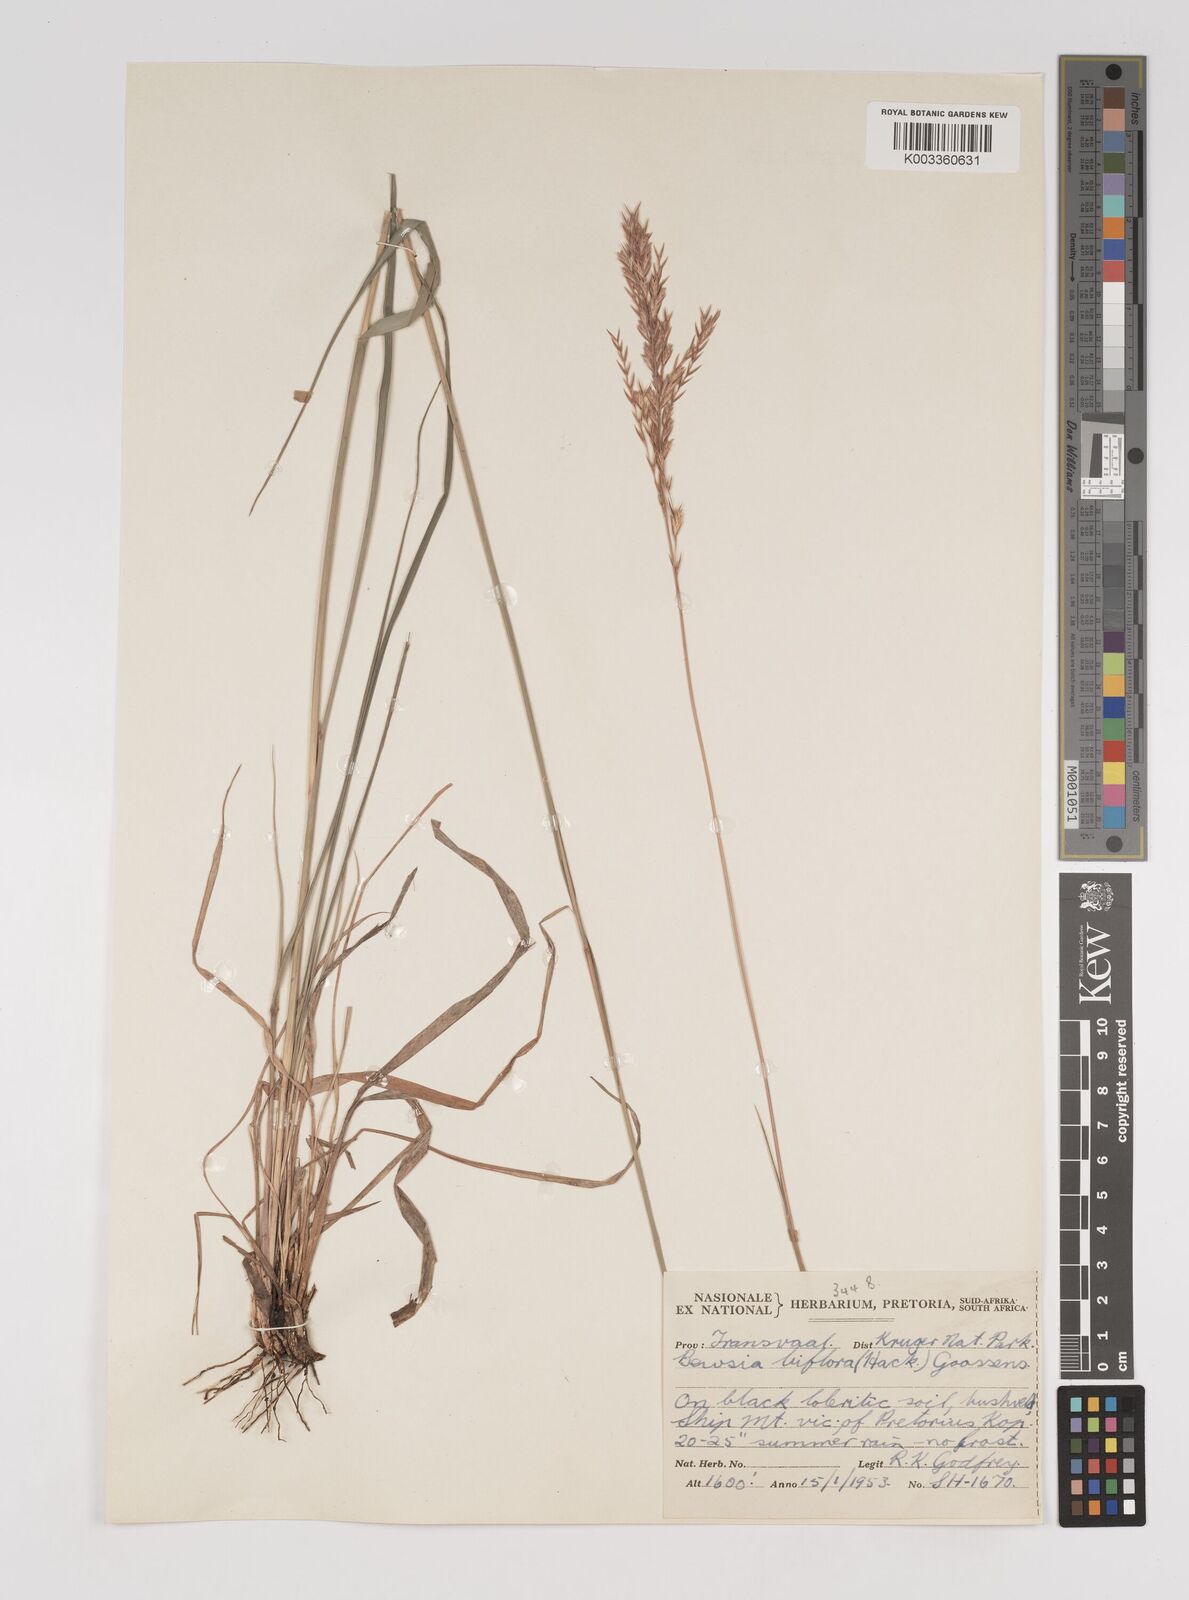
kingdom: Plantae
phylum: Tracheophyta
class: Liliopsida
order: Poales
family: Poaceae
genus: Bewsia
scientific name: Bewsia biflora
